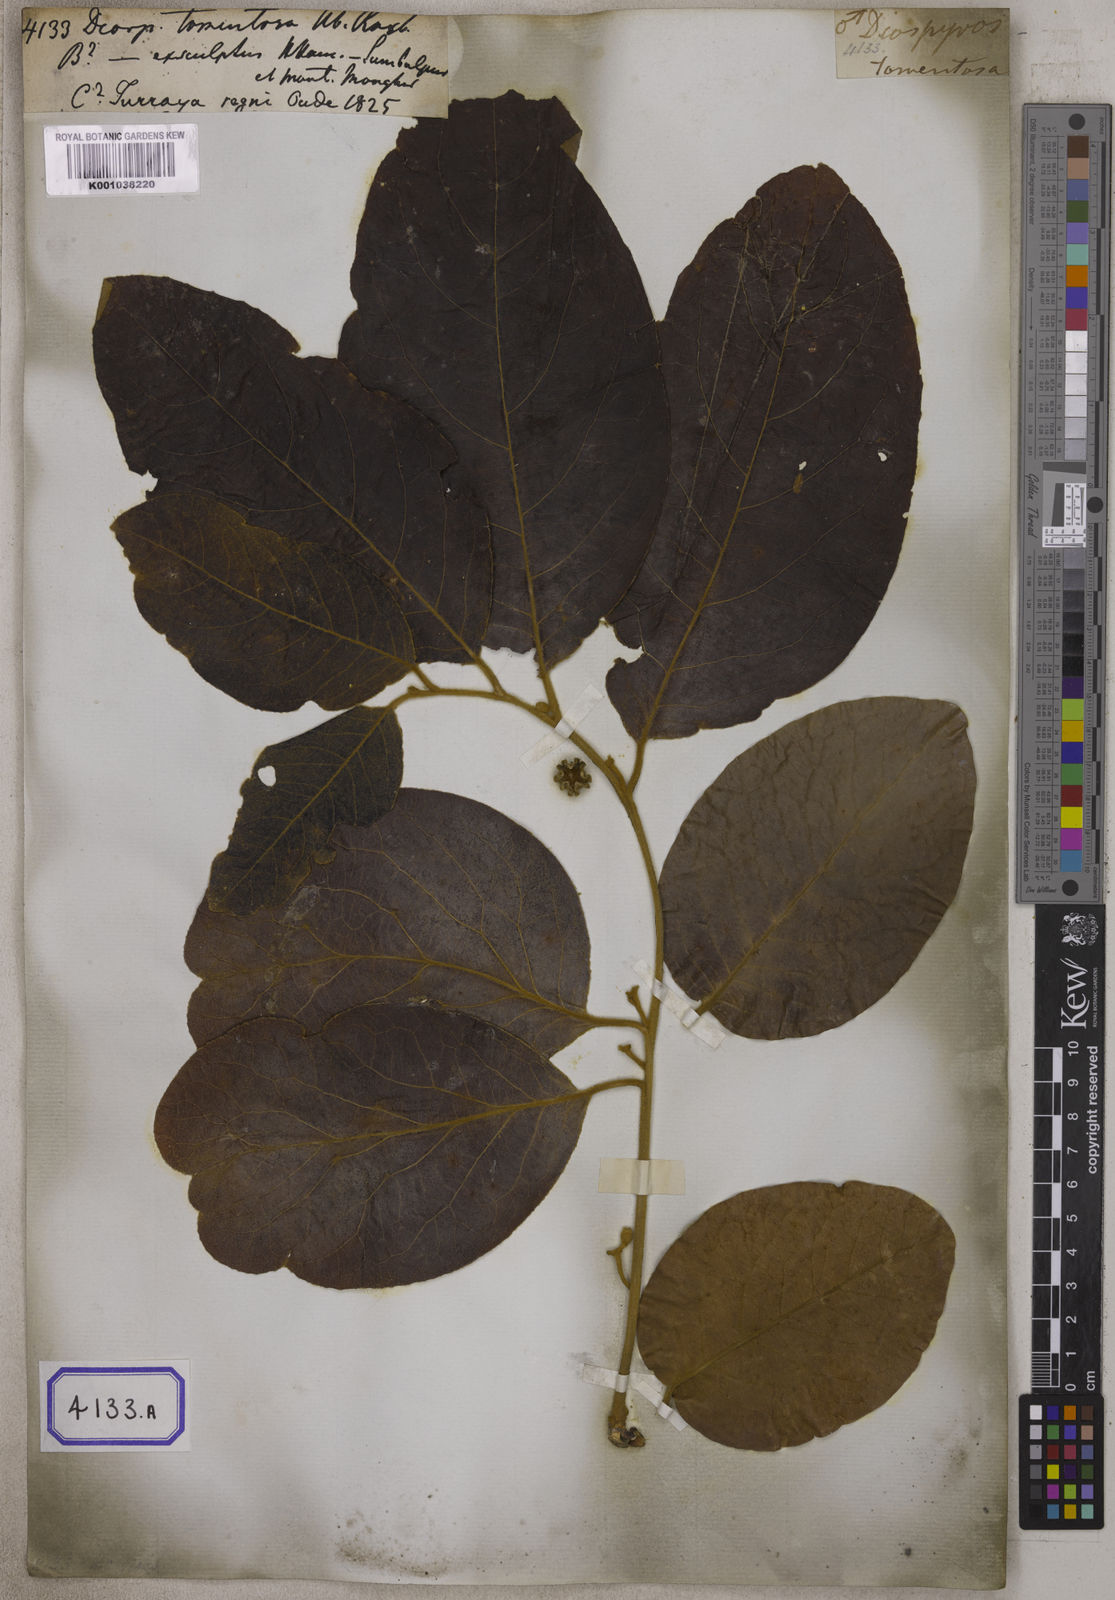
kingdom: Plantae
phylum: Tracheophyta
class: Magnoliopsida
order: Ericales
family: Ebenaceae
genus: Diospyros
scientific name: Diospyros exculpta
